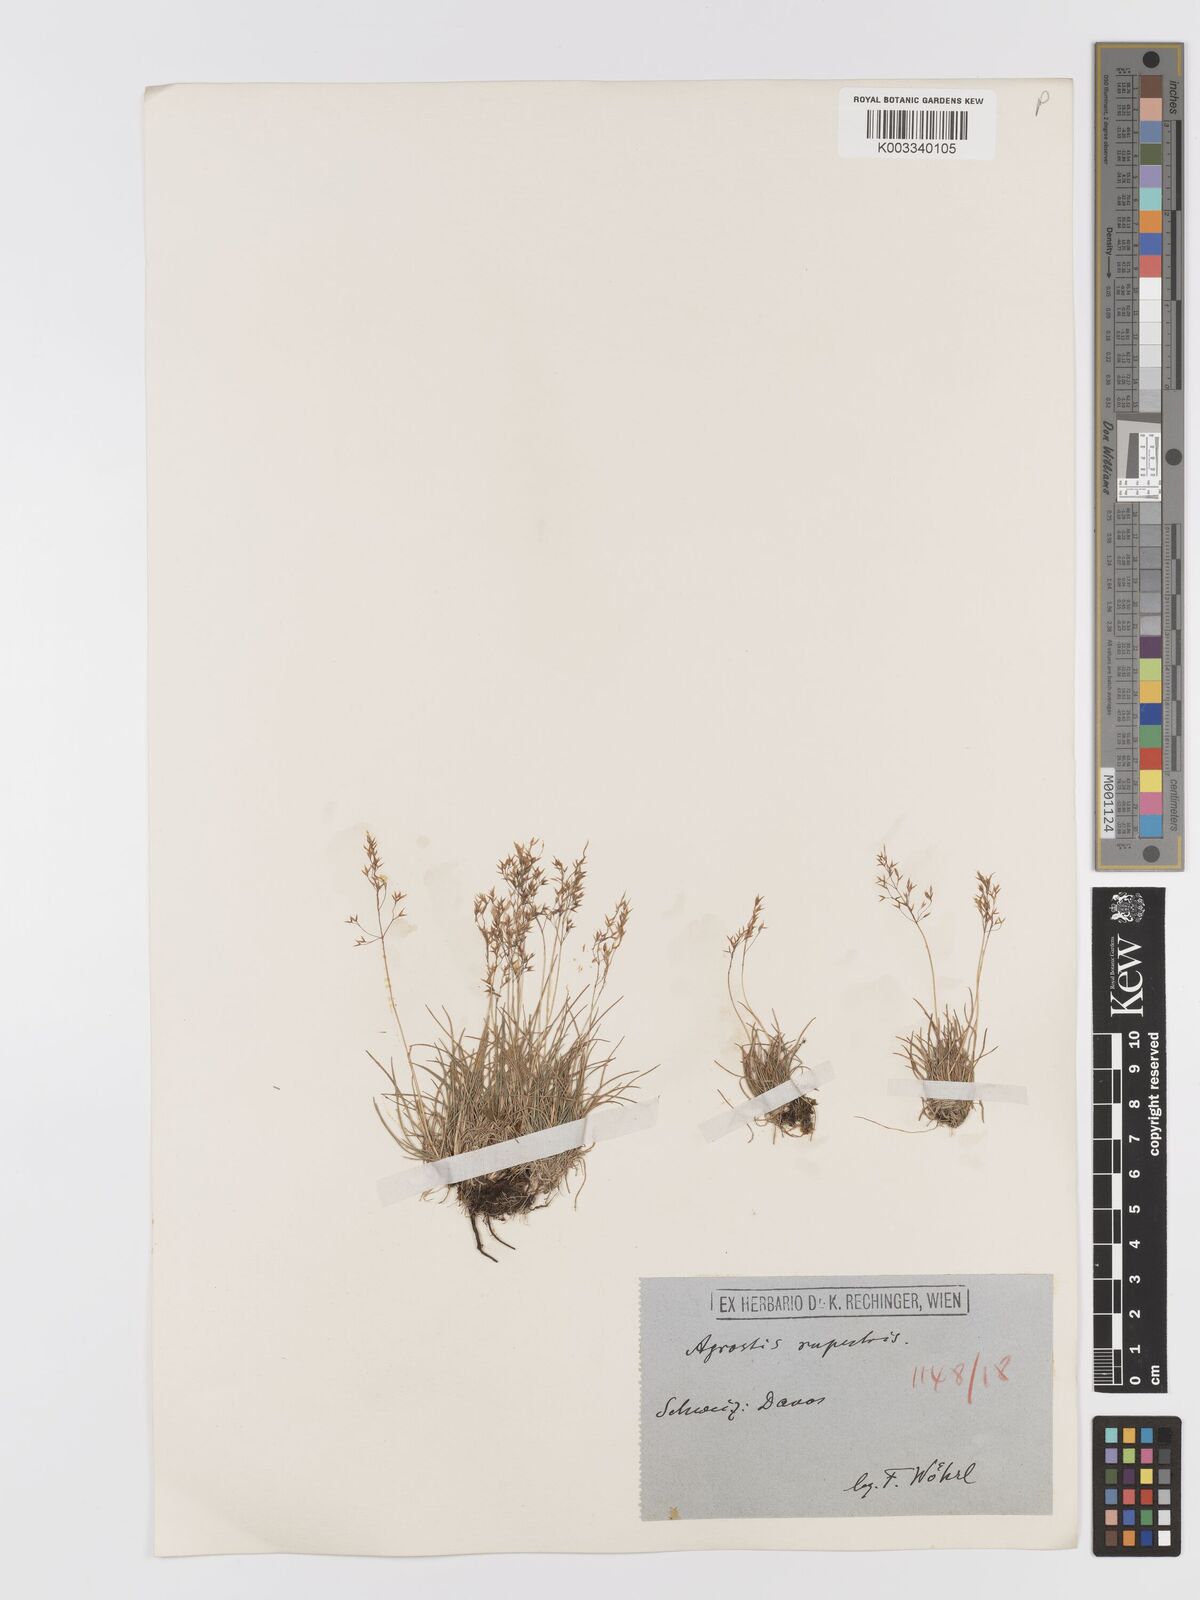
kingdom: Plantae
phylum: Tracheophyta
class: Liliopsida
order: Poales
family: Poaceae
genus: Agrostis
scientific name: Agrostis rupestris
